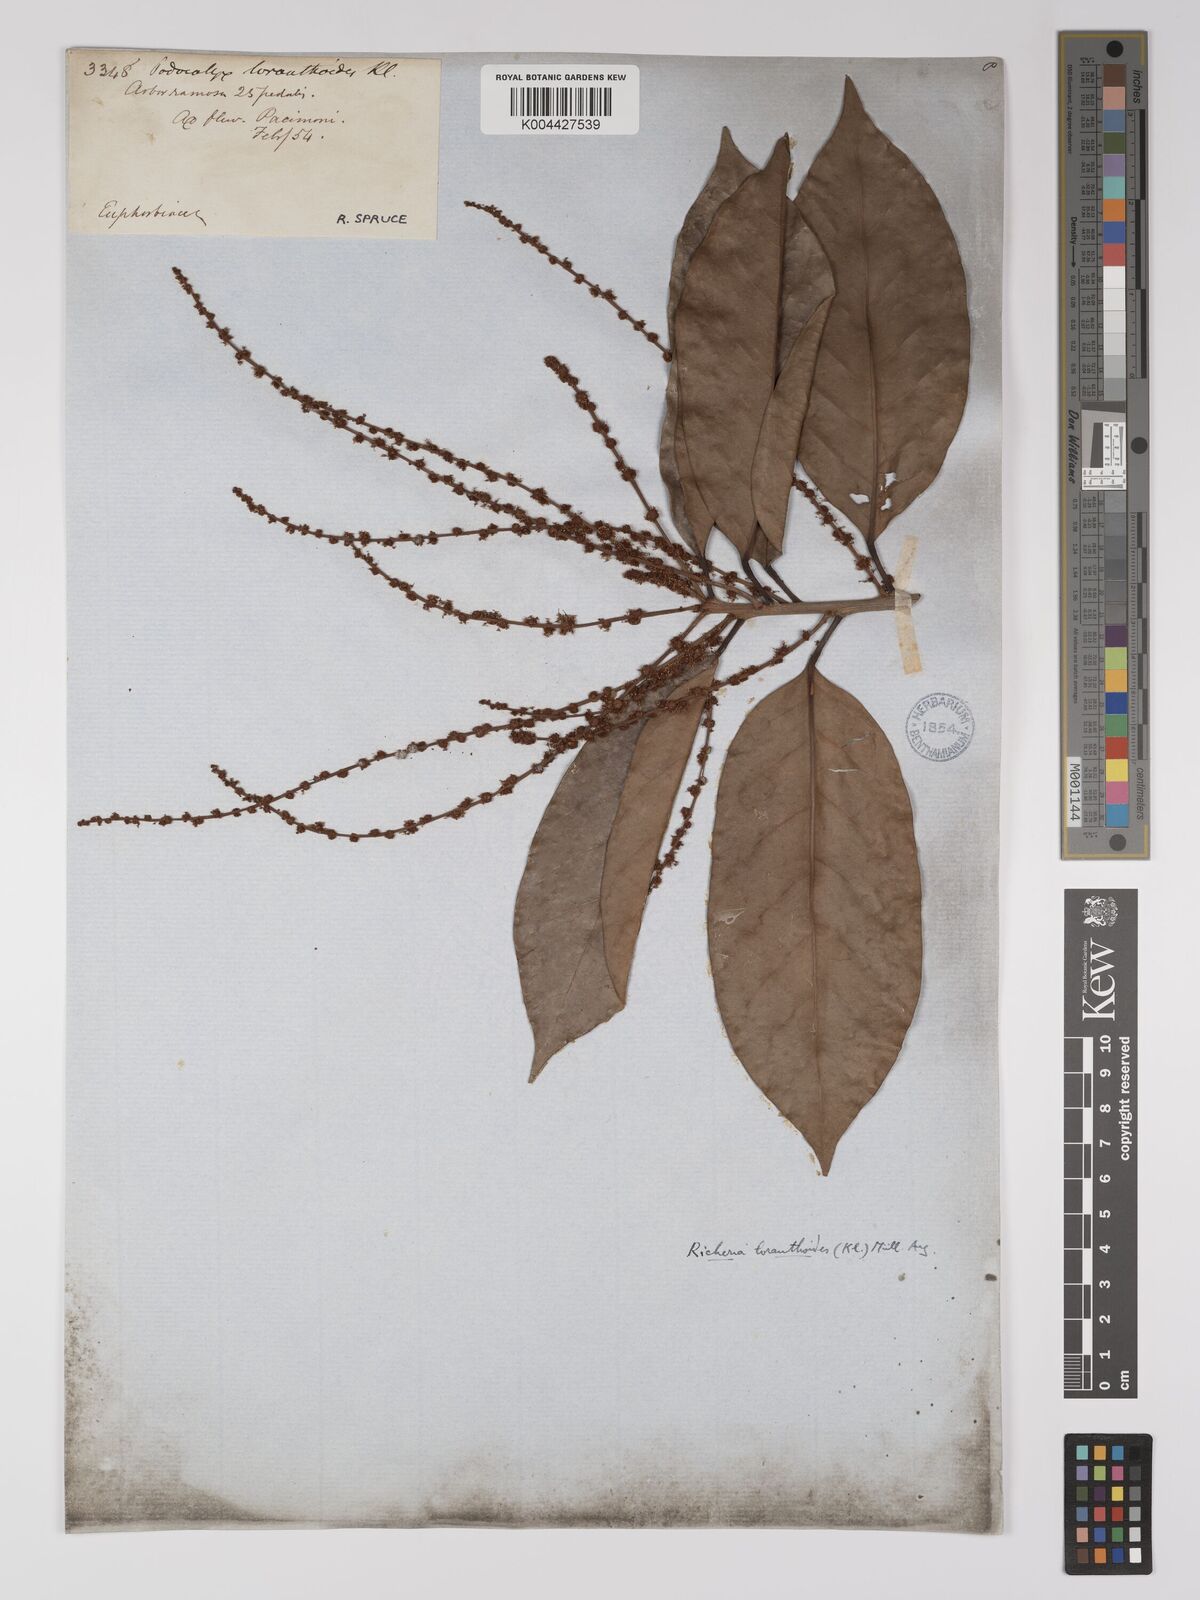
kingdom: Plantae
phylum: Tracheophyta
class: Magnoliopsida
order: Malpighiales
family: Picrodendraceae
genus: Podocalyx
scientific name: Podocalyx loranthoides
